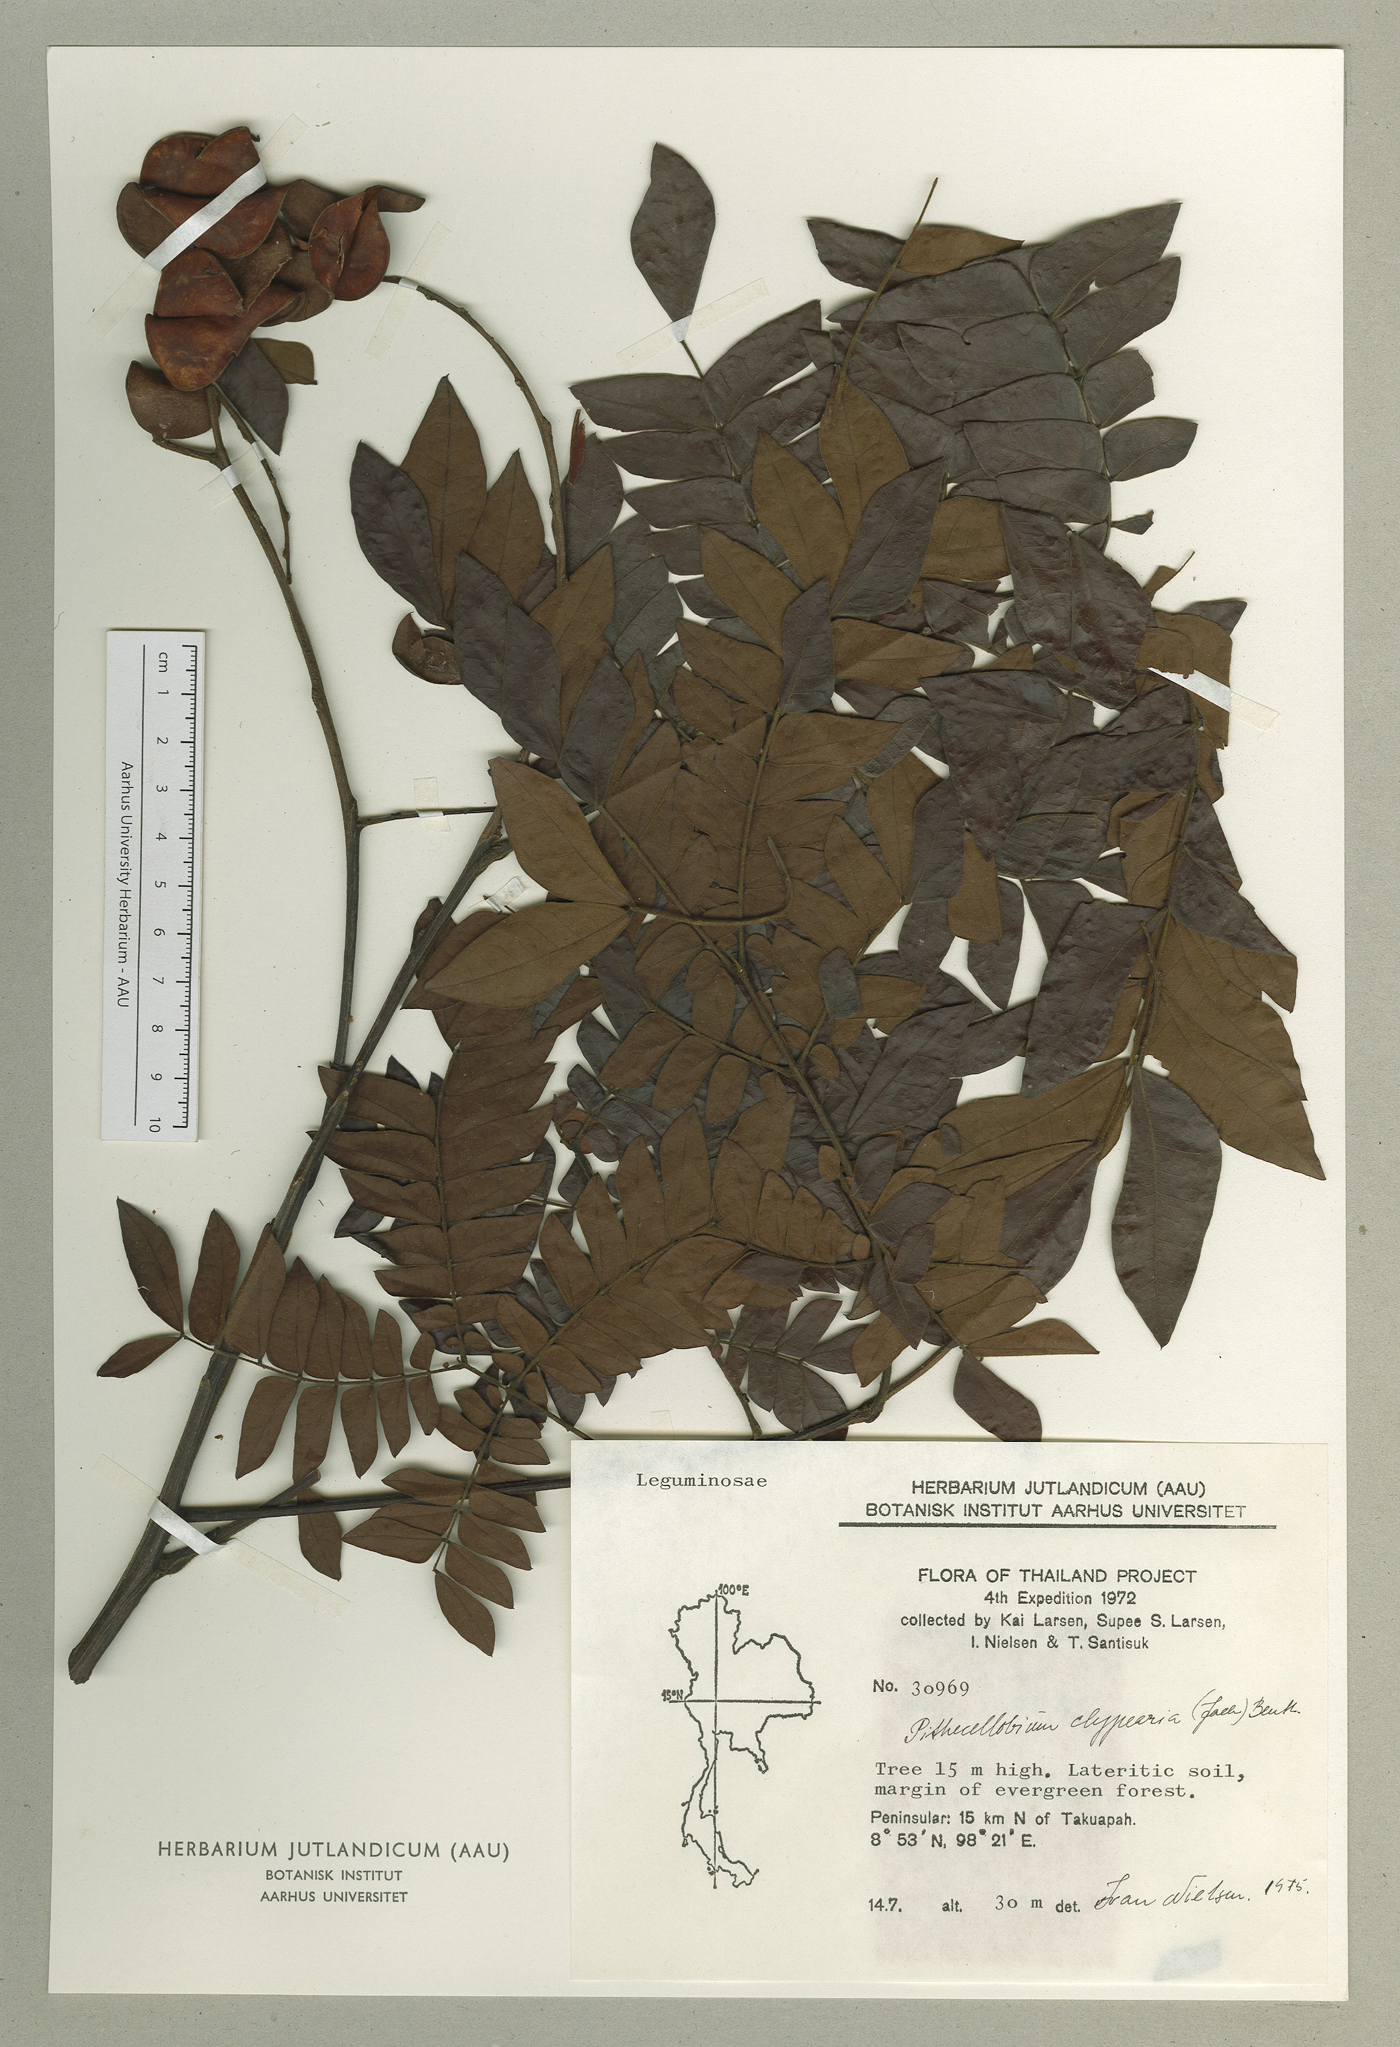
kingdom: Plantae
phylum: Tracheophyta
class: Magnoliopsida
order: Fabales
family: Fabaceae
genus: Archidendron
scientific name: Archidendron clypearia
